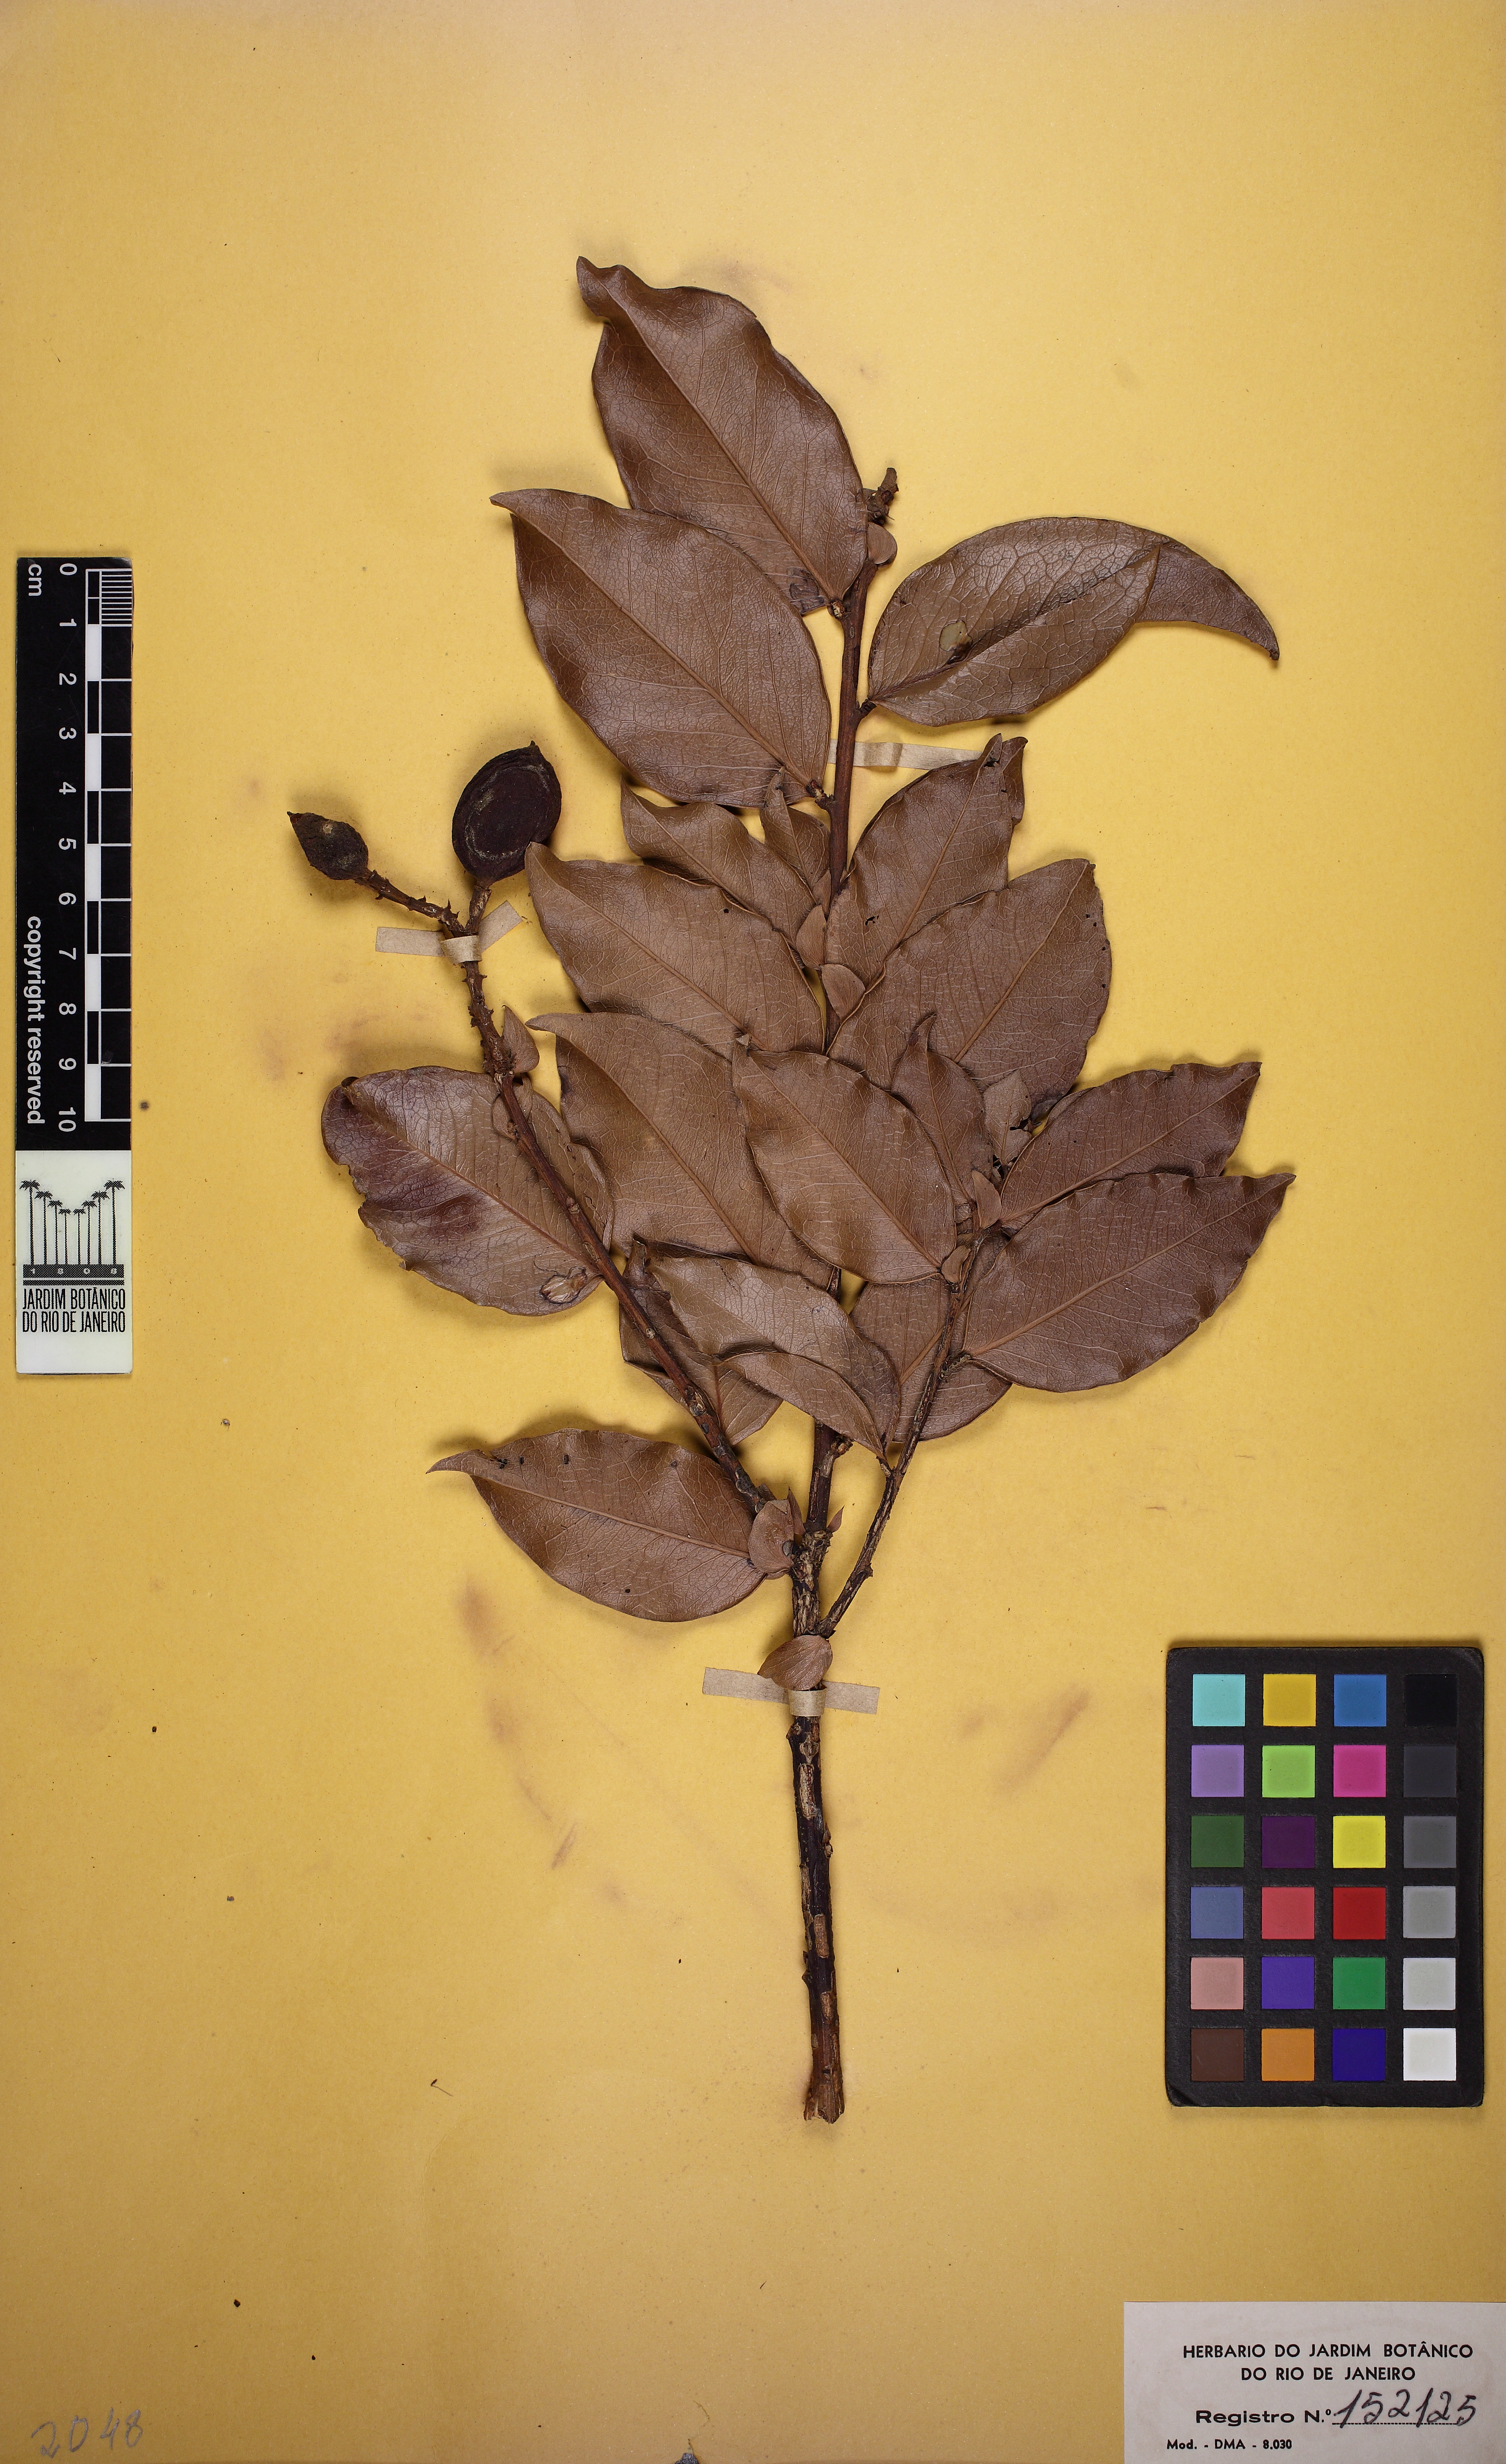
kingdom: Plantae
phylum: Tracheophyta
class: Magnoliopsida
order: Fabales
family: Fabaceae
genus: Zollernia
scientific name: Zollernia glabra
